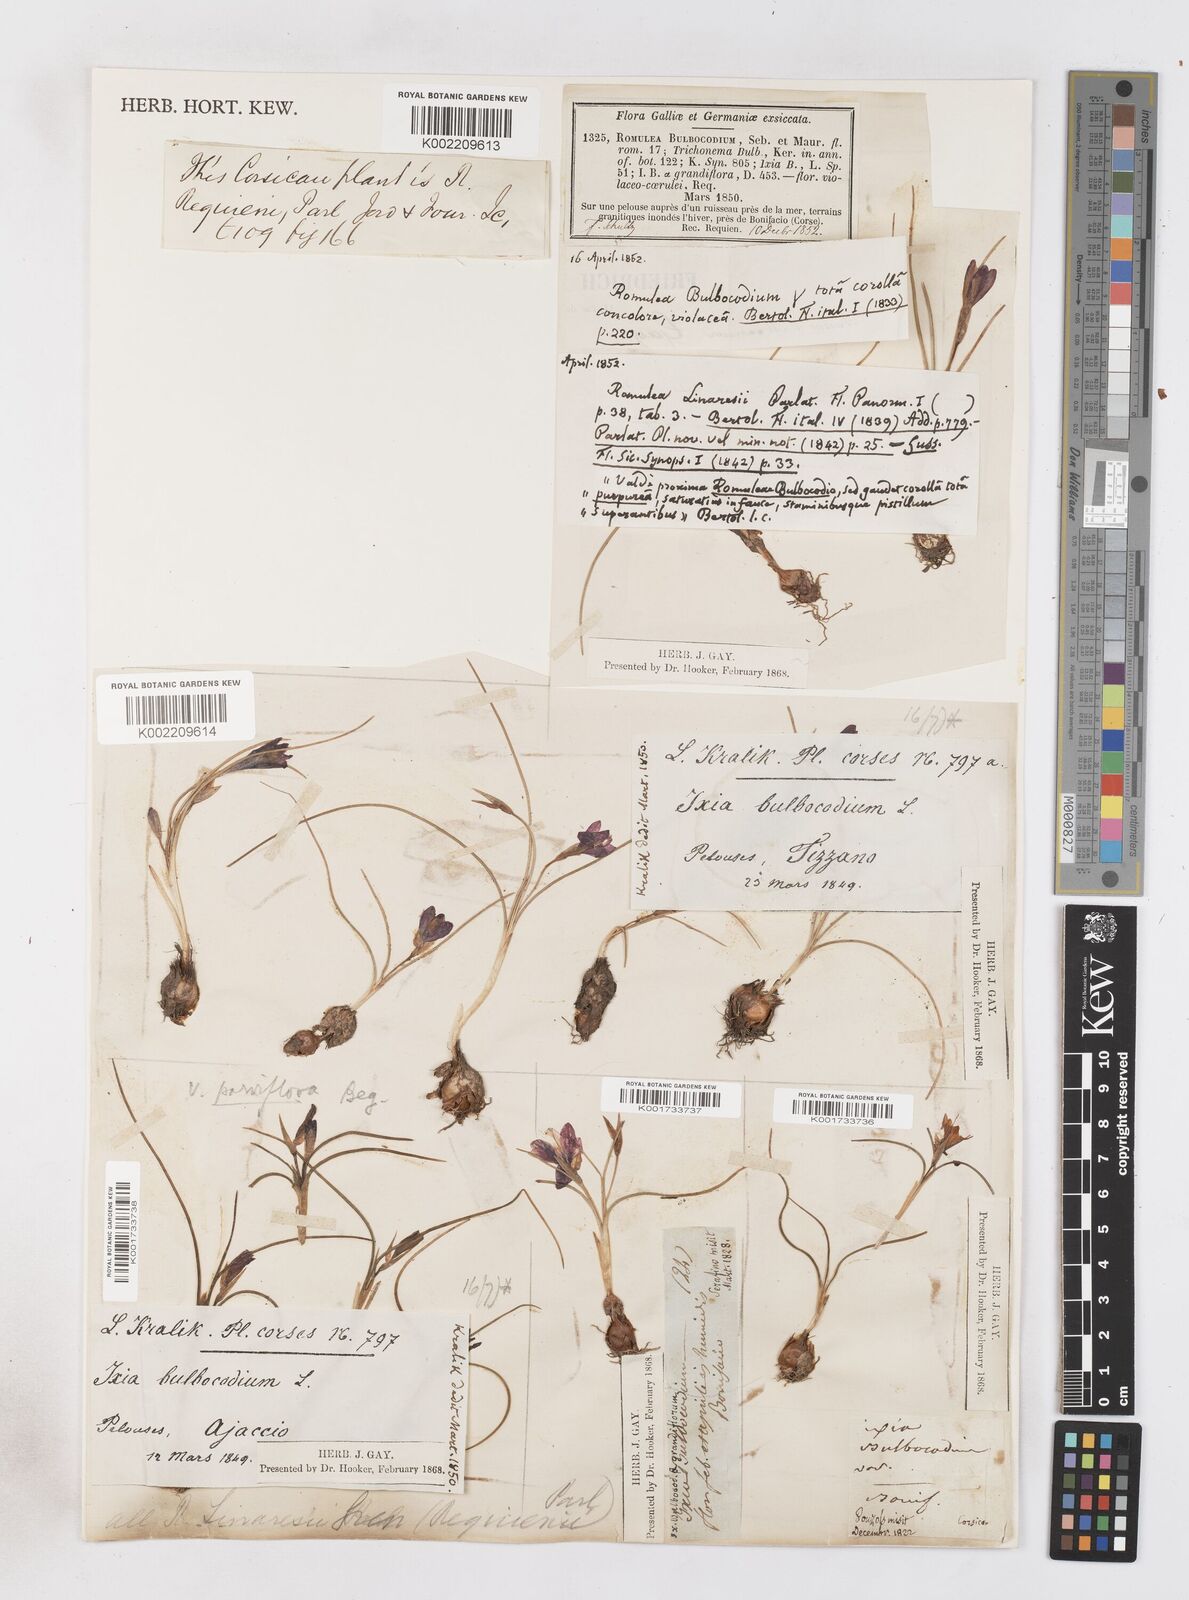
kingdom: Plantae
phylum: Tracheophyta
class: Liliopsida
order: Asparagales
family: Iridaceae
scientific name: Iridaceae
